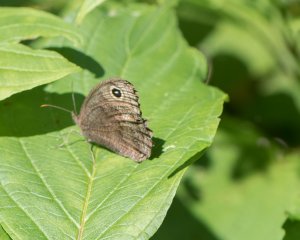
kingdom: Animalia
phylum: Arthropoda
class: Insecta
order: Lepidoptera
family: Nymphalidae
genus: Cercyonis
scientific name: Cercyonis pegala
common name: Common Wood-Nymph
